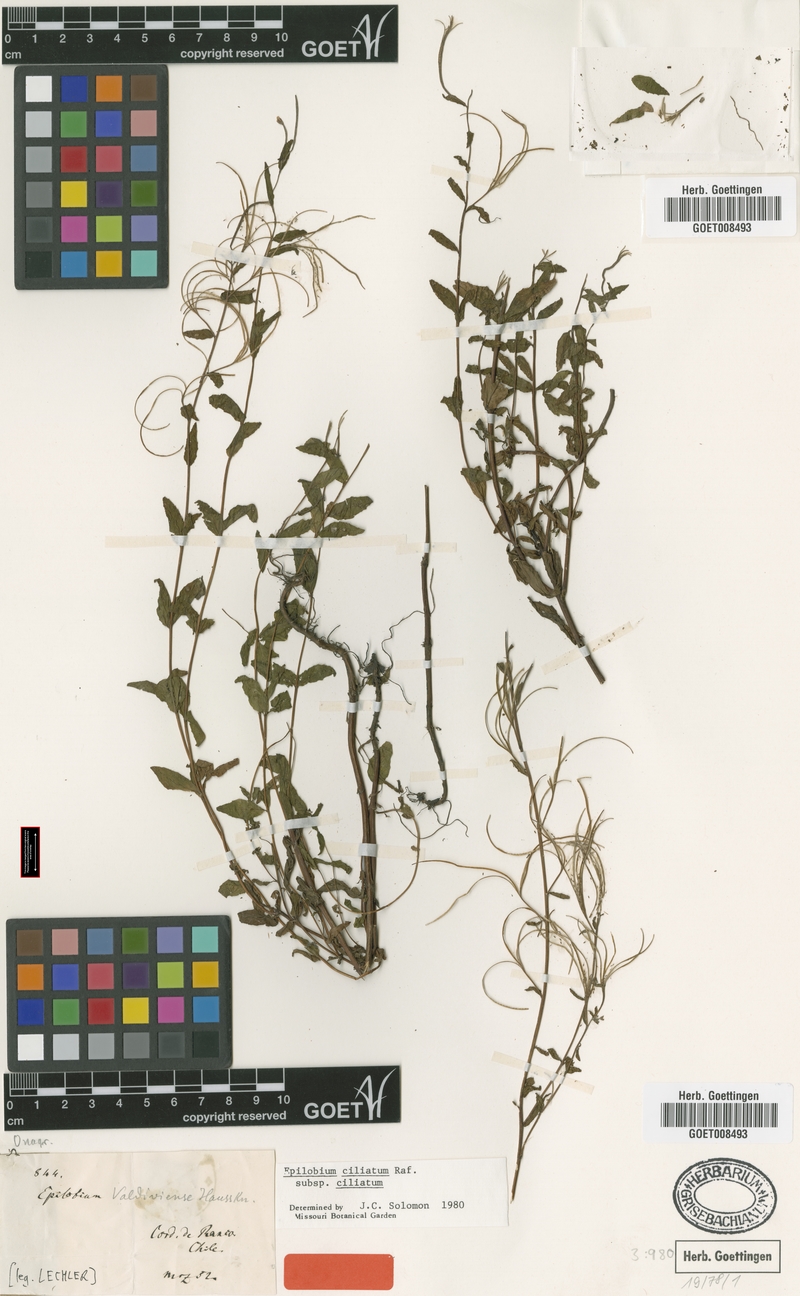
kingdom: Plantae
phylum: Tracheophyta
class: Magnoliopsida
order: Myrtales
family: Onagraceae
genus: Epilobium
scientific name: Epilobium ciliatum
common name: American willowherb
